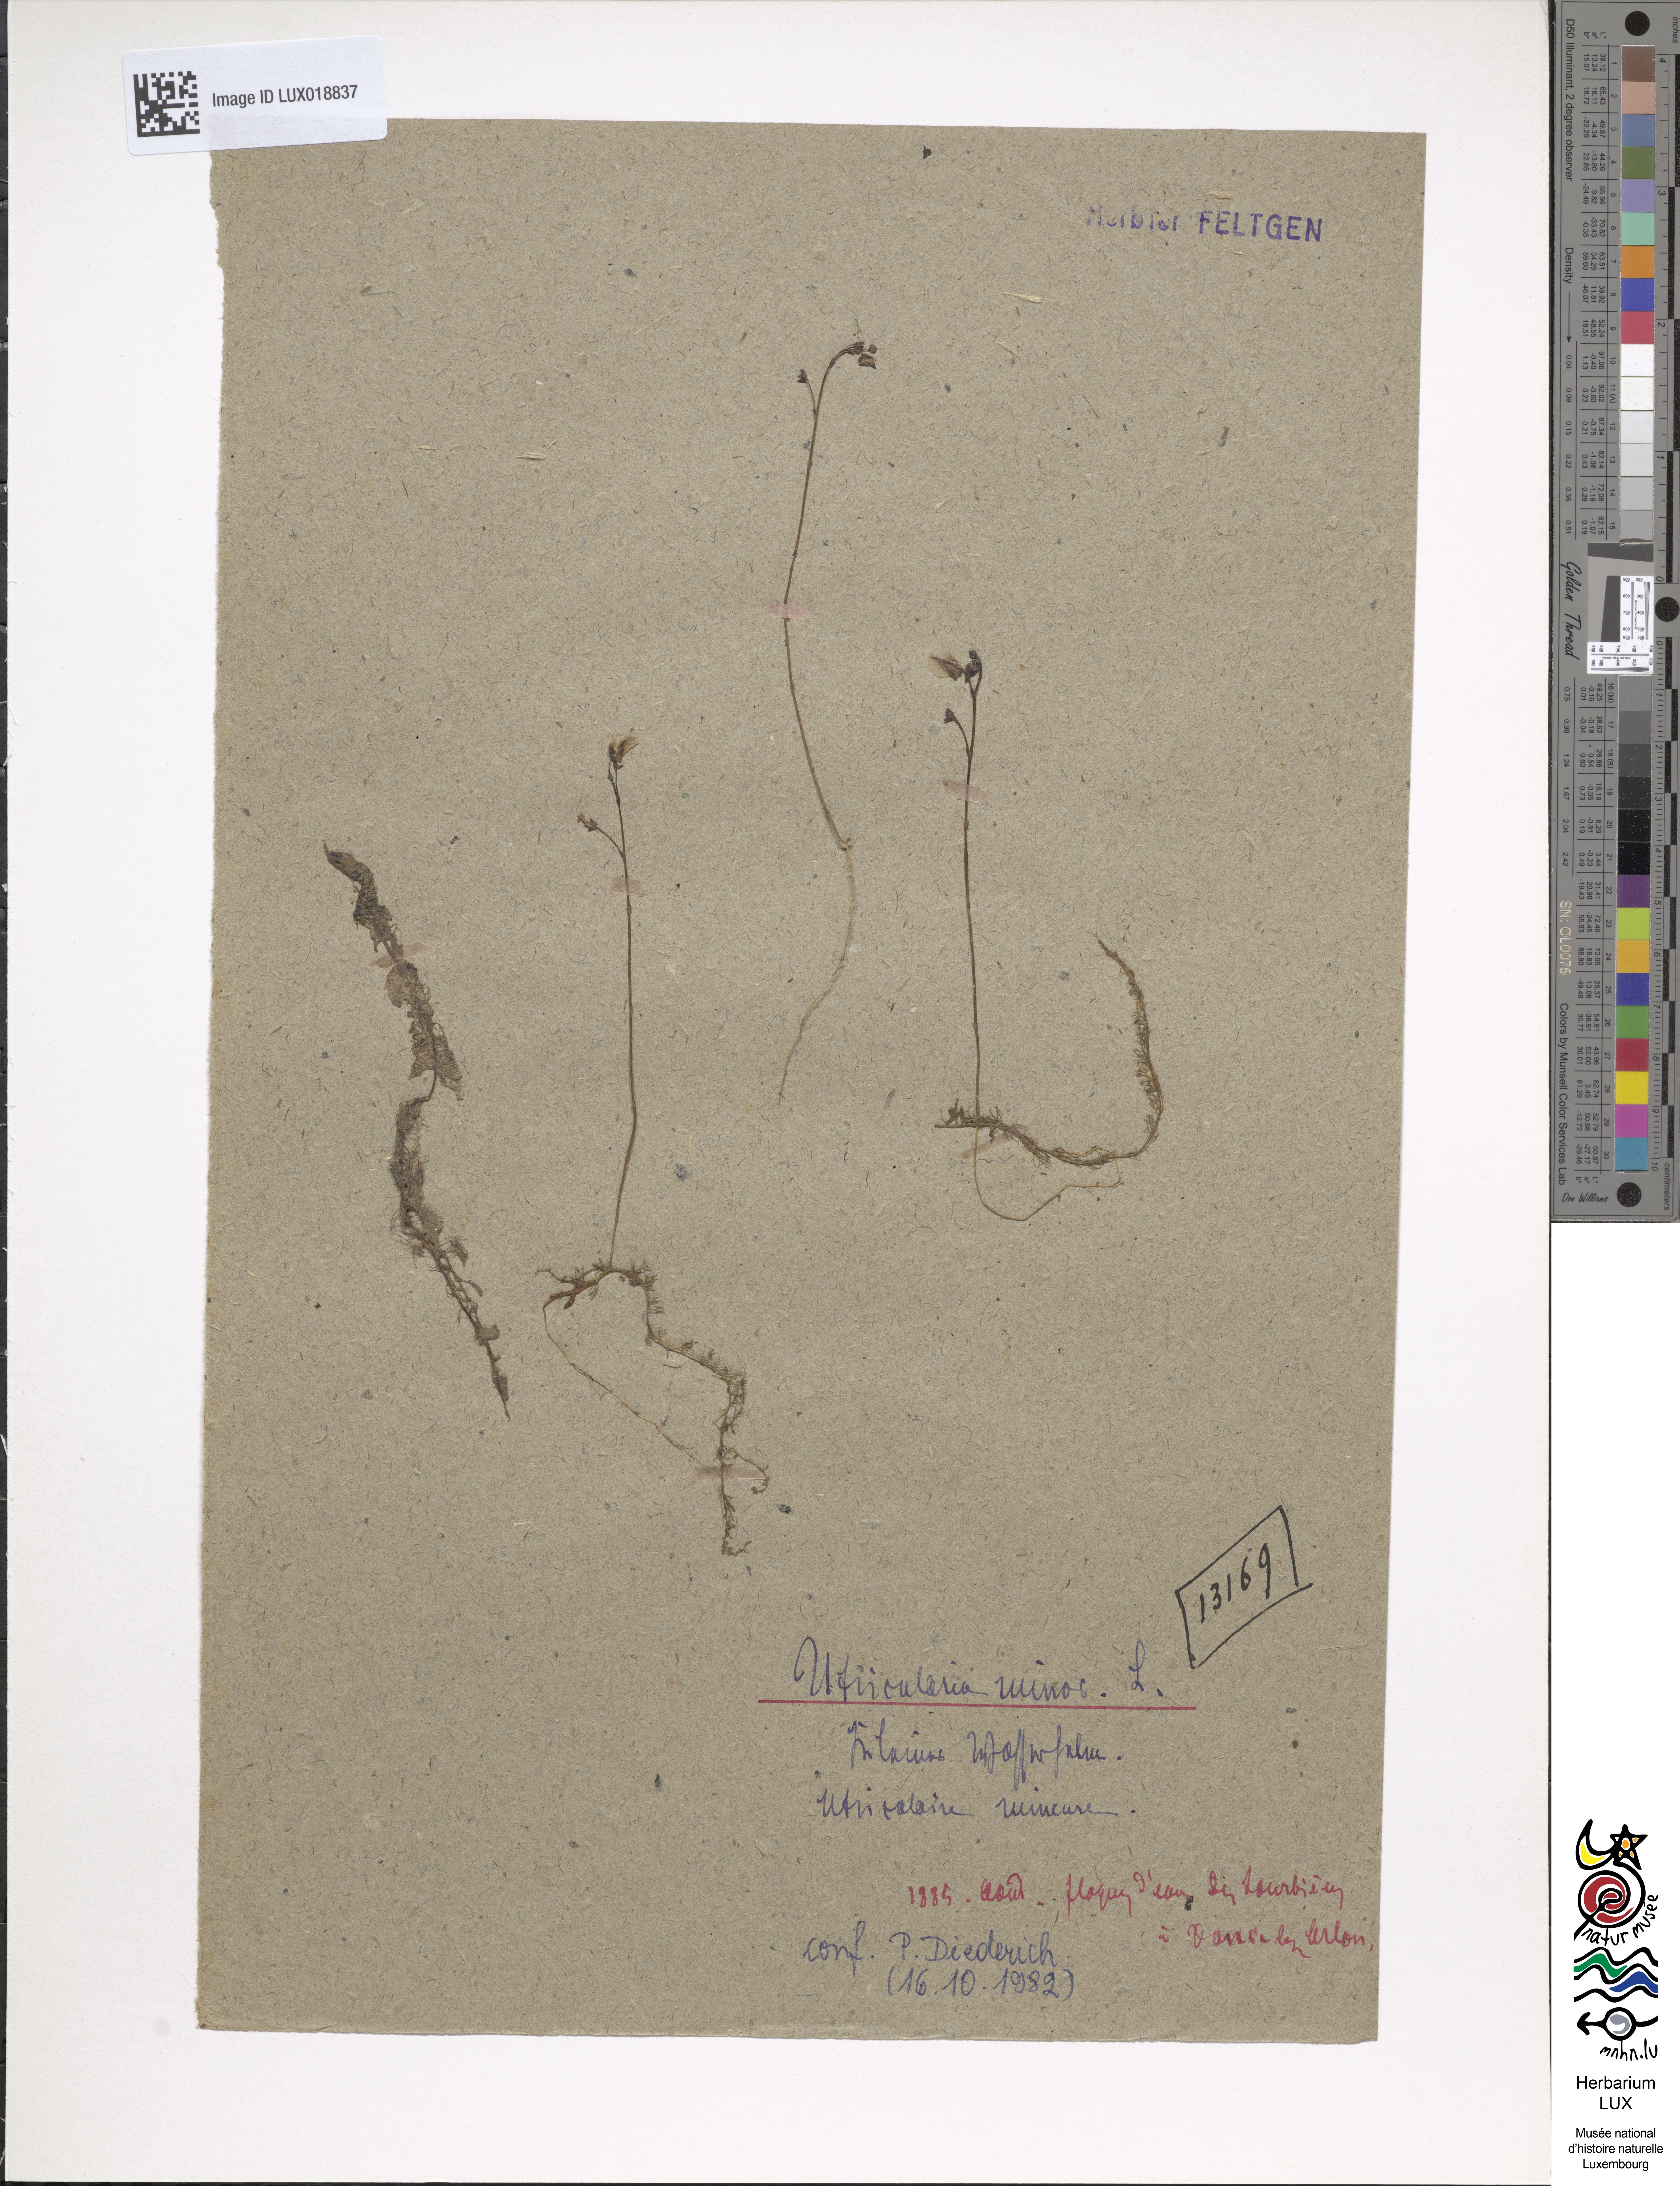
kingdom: Plantae
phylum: Tracheophyta
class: Magnoliopsida
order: Lamiales
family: Lentibulariaceae
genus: Utricularia
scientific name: Utricularia minor
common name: Lesser bladderwort
